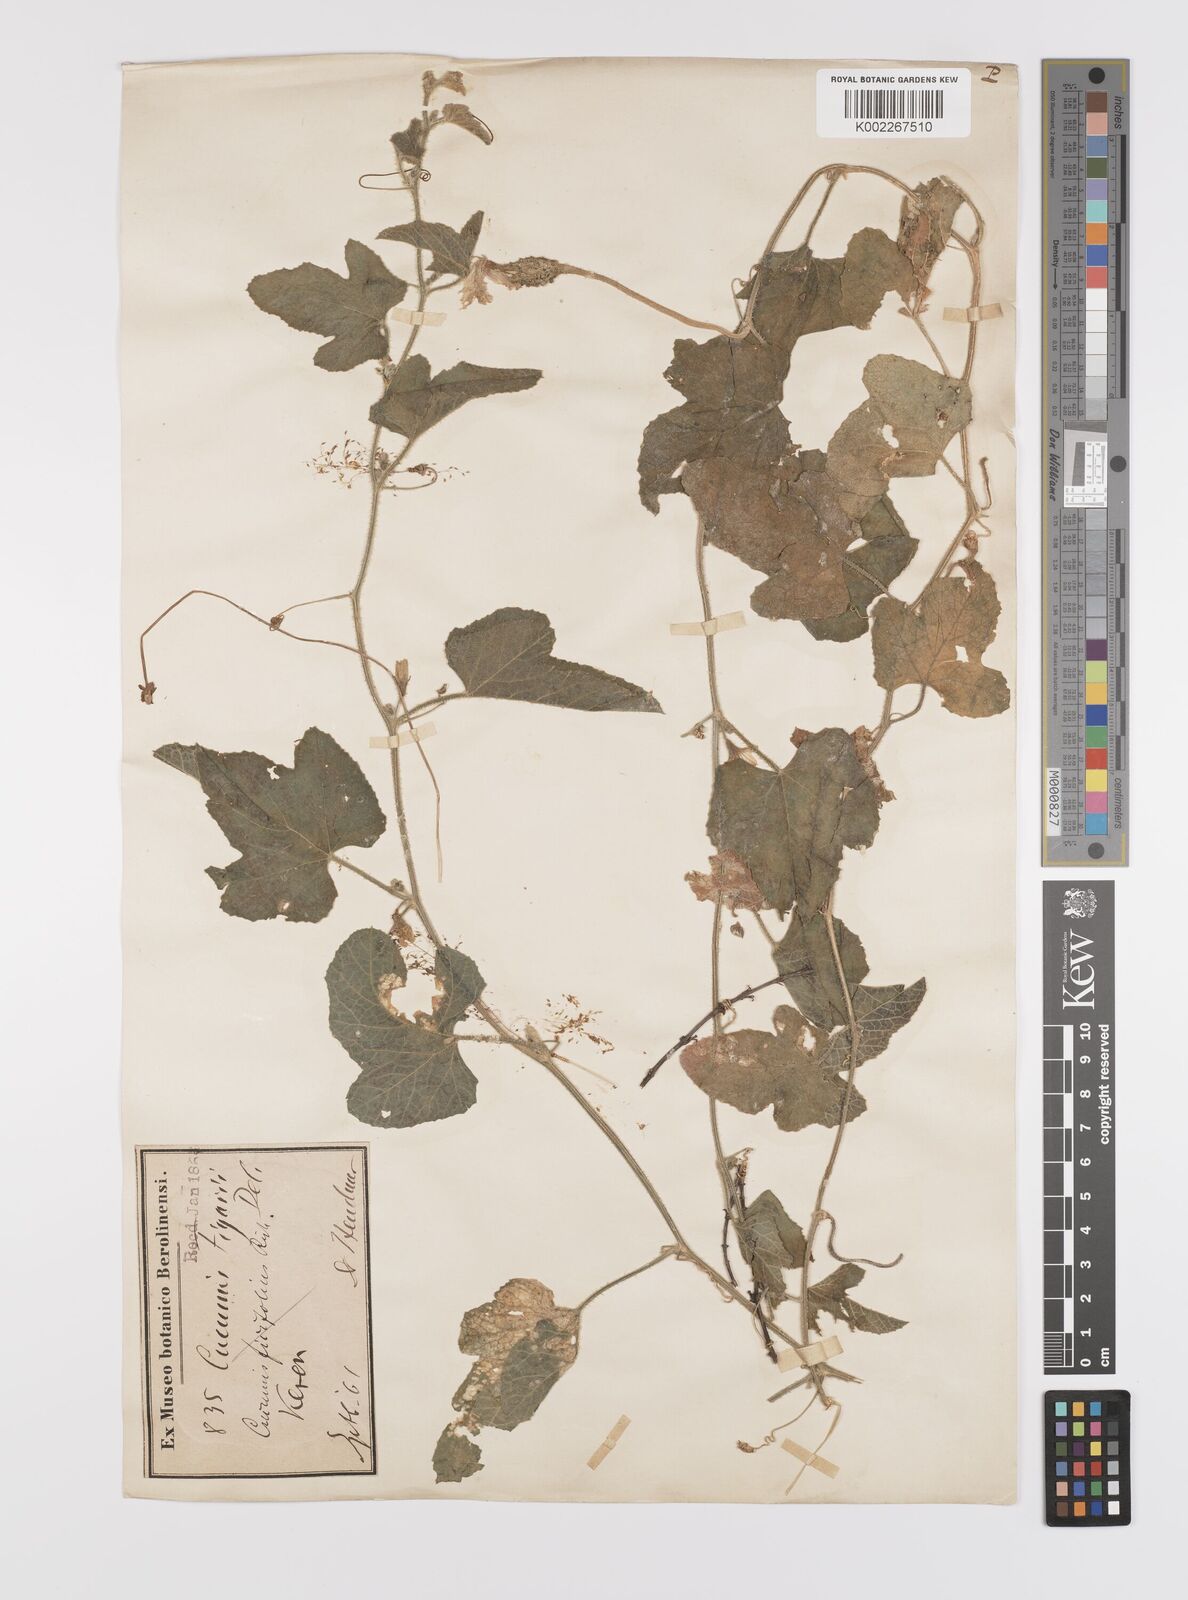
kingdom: Plantae
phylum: Tracheophyta
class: Magnoliopsida
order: Cucurbitales
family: Cucurbitaceae
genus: Cucumis
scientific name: Cucumis pustulatus
